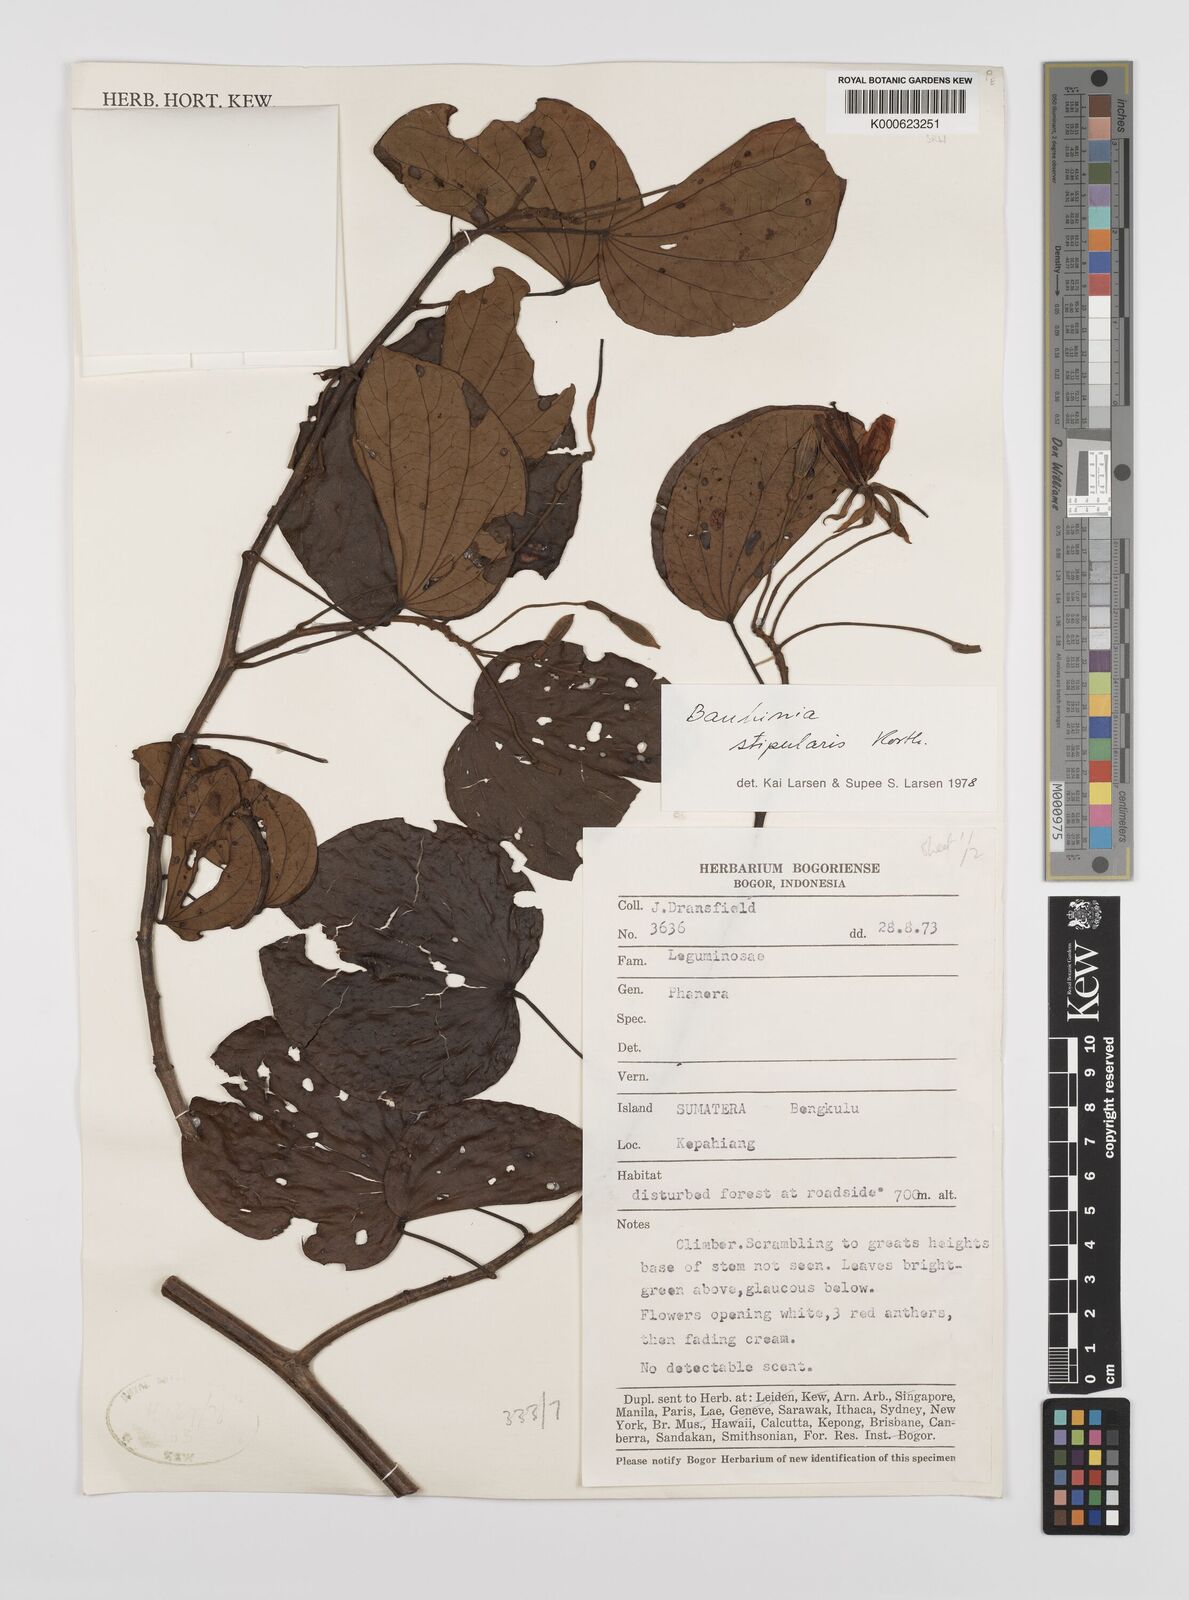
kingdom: Plantae
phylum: Tracheophyta
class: Magnoliopsida
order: Fabales
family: Fabaceae
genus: Phanera
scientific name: Phanera stipularis
